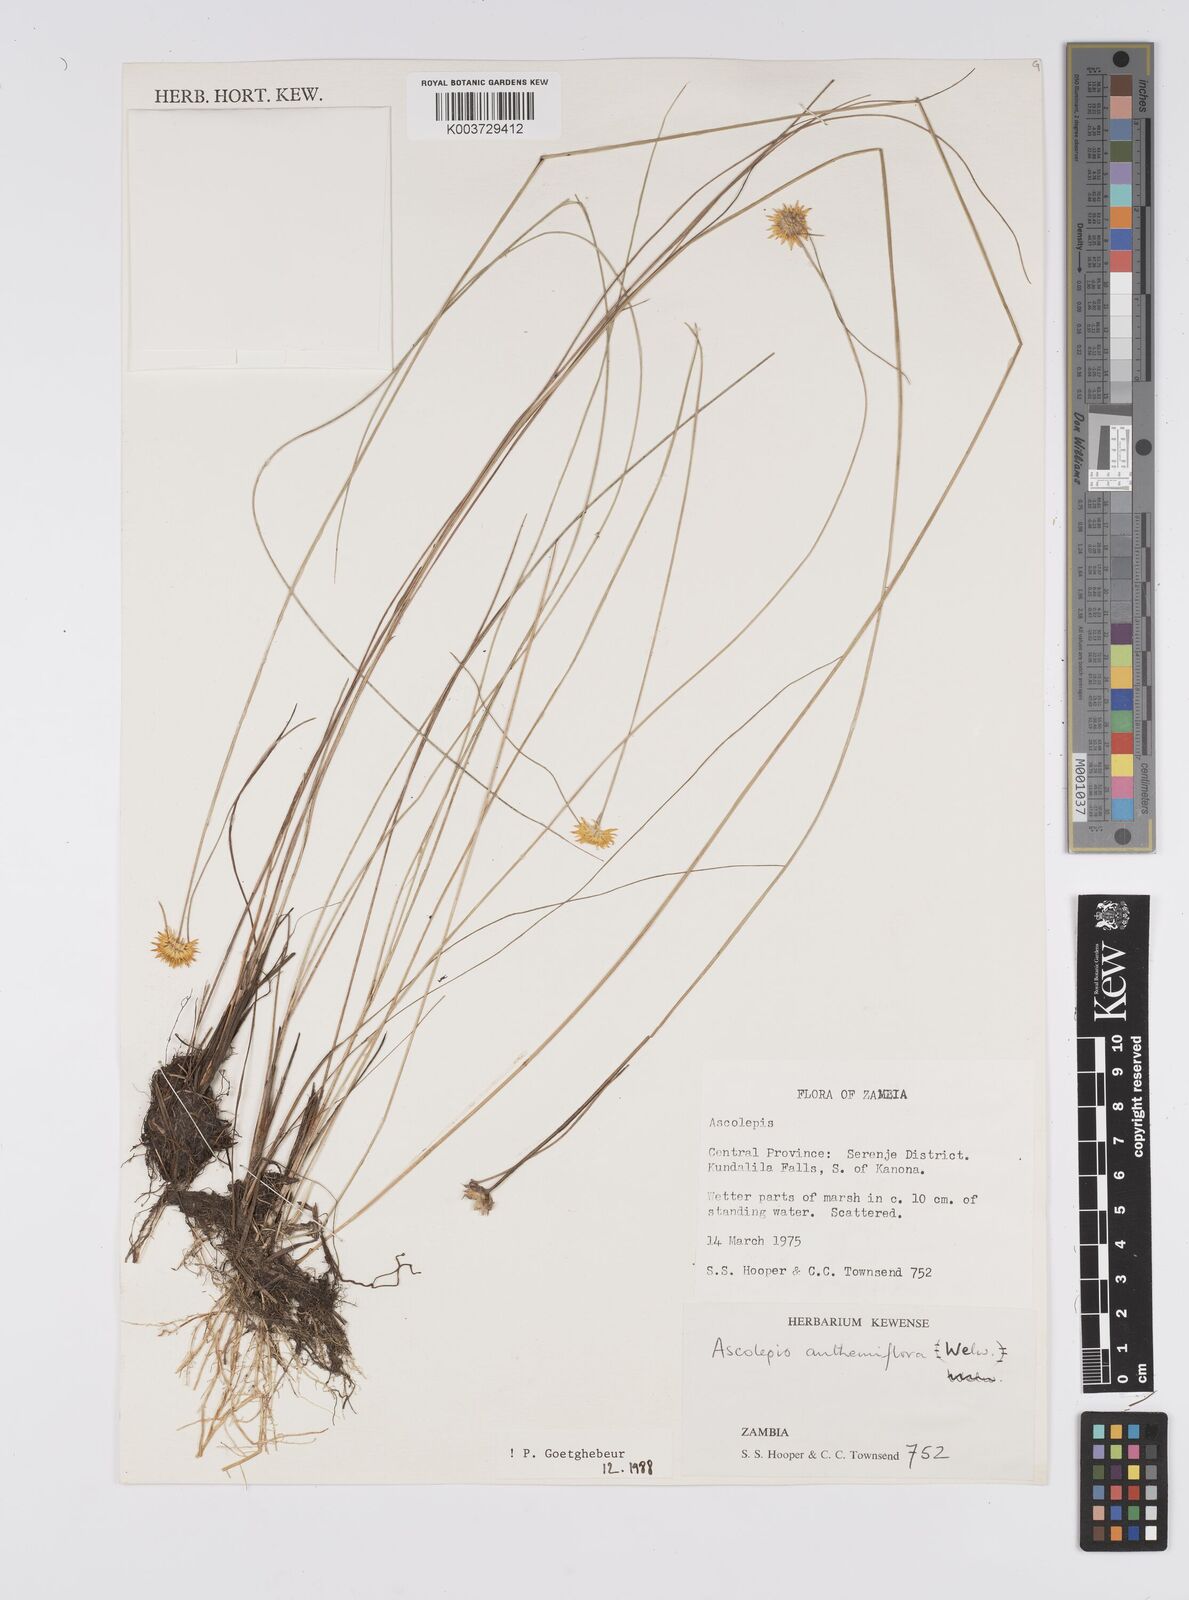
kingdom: Plantae
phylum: Tracheophyta
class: Liliopsida
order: Poales
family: Cyperaceae
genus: Cyperus
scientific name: Cyperus
